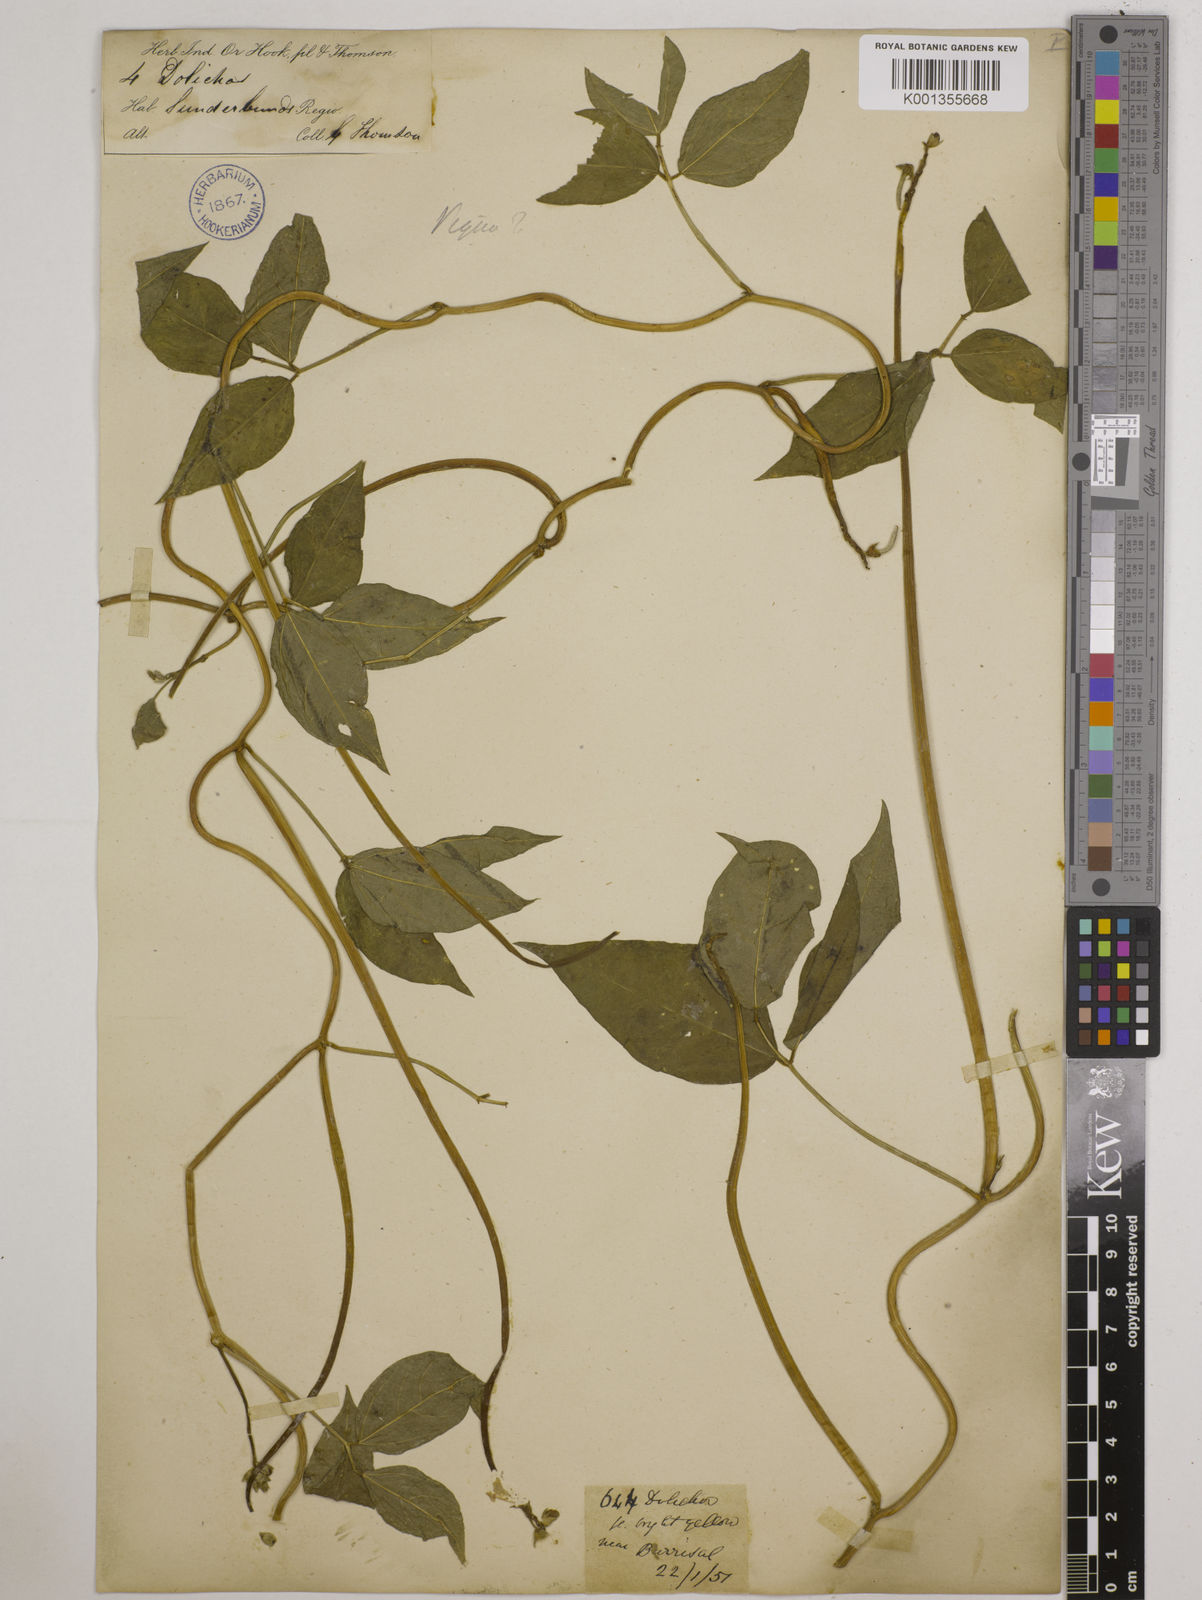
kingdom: Plantae
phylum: Tracheophyta
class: Magnoliopsida
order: Fabales
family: Fabaceae
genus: Vigna
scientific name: Vigna luteola
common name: Hairypod cowpea
